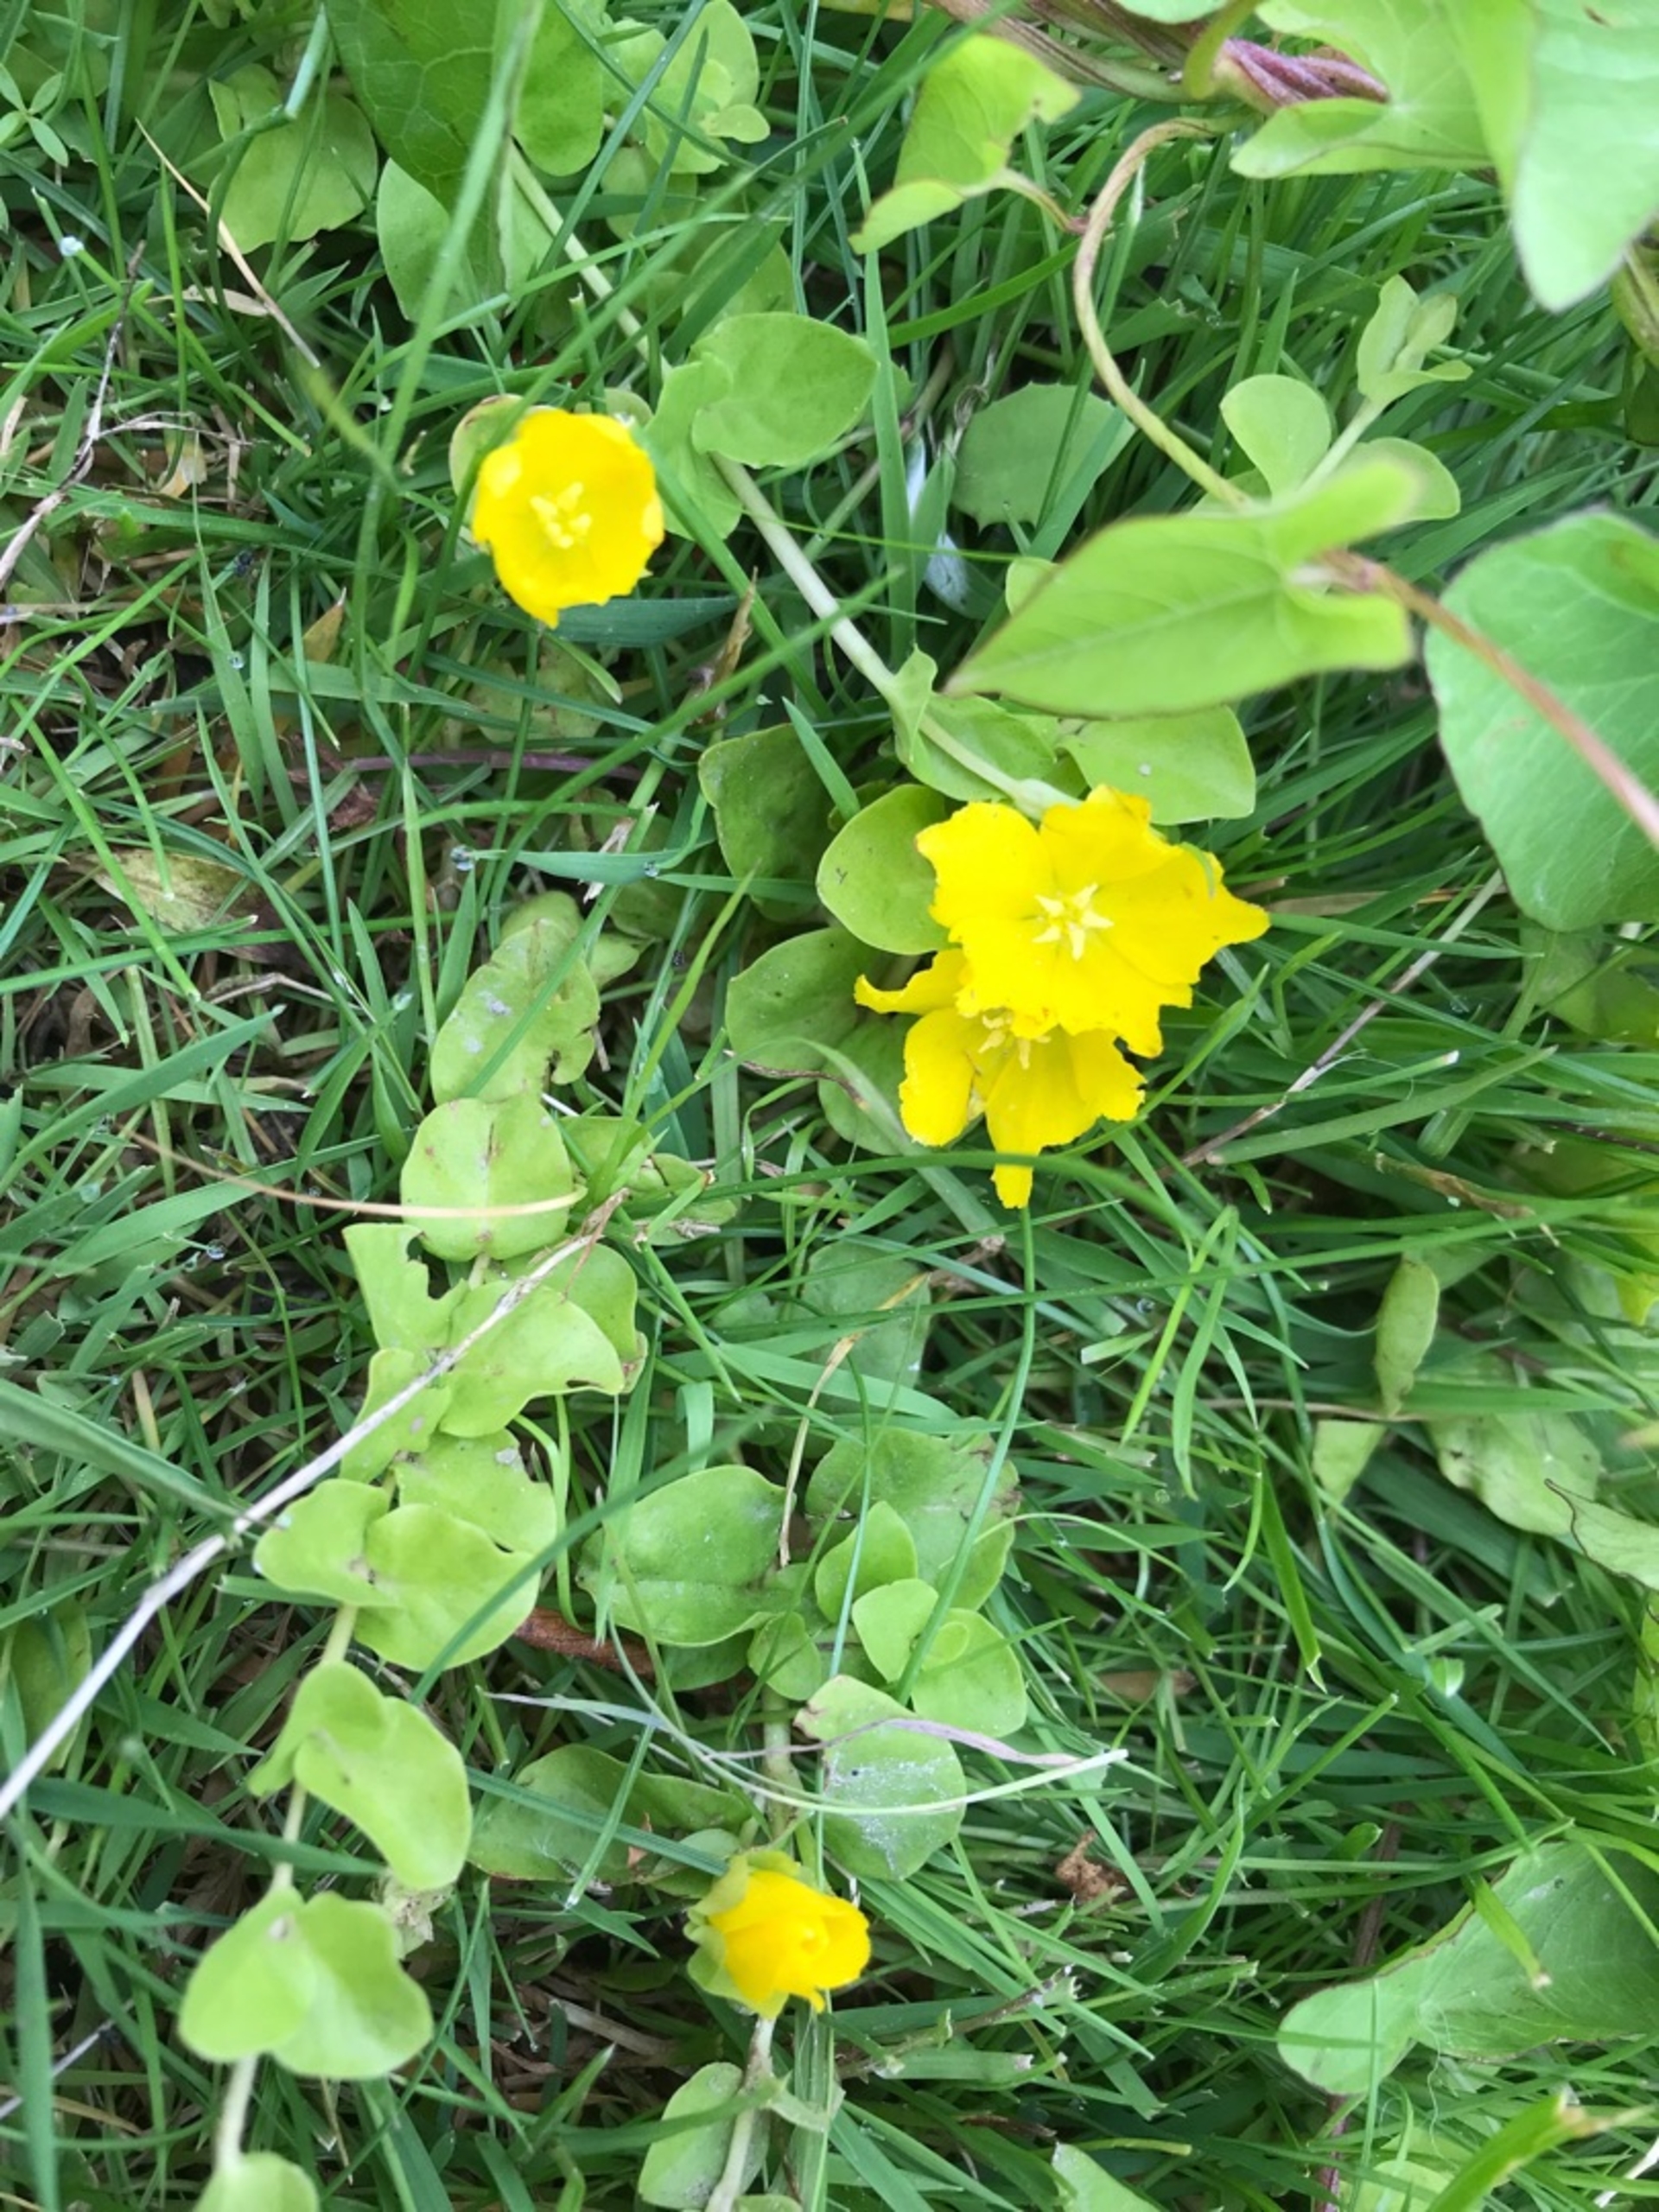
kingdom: Plantae
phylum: Tracheophyta
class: Magnoliopsida
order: Ericales
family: Primulaceae
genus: Lysimachia
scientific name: Lysimachia nummularia
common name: Pengebladet fredløs
